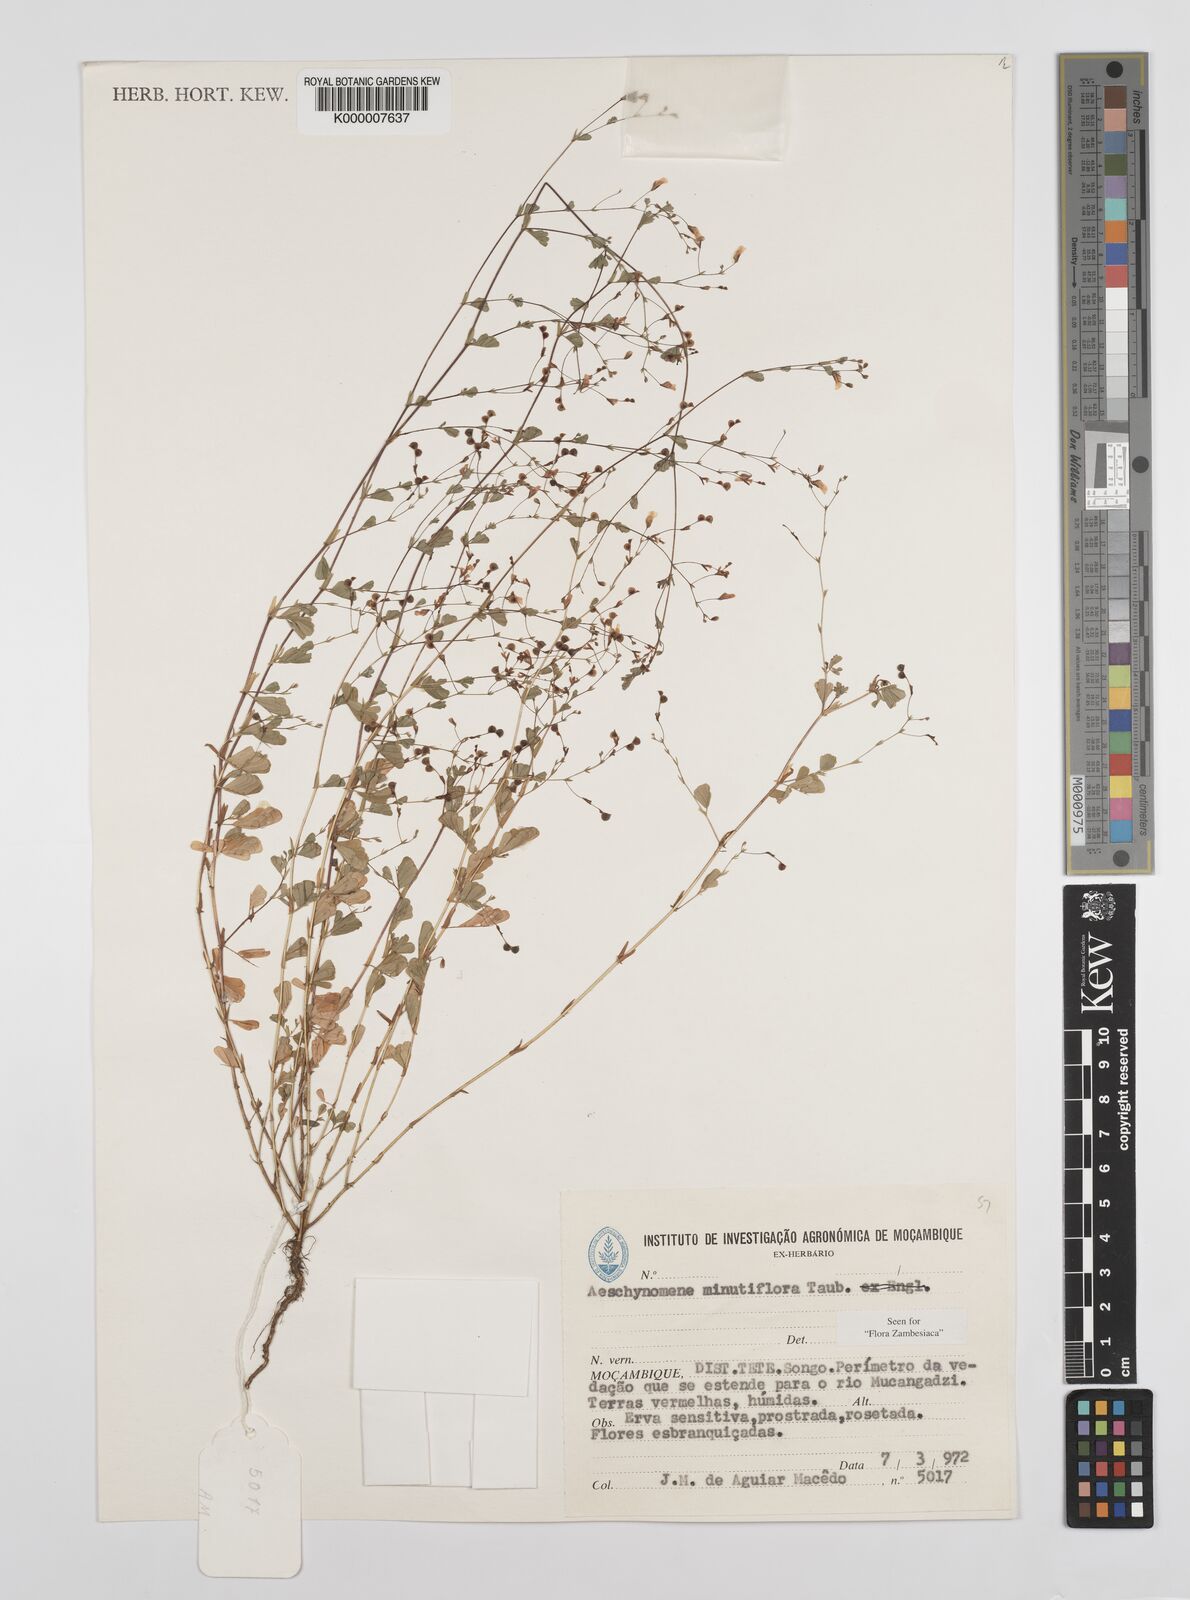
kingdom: Plantae
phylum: Tracheophyta
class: Magnoliopsida
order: Fabales
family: Fabaceae
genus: Aeschynomene
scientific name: Aeschynomene minutiflora
